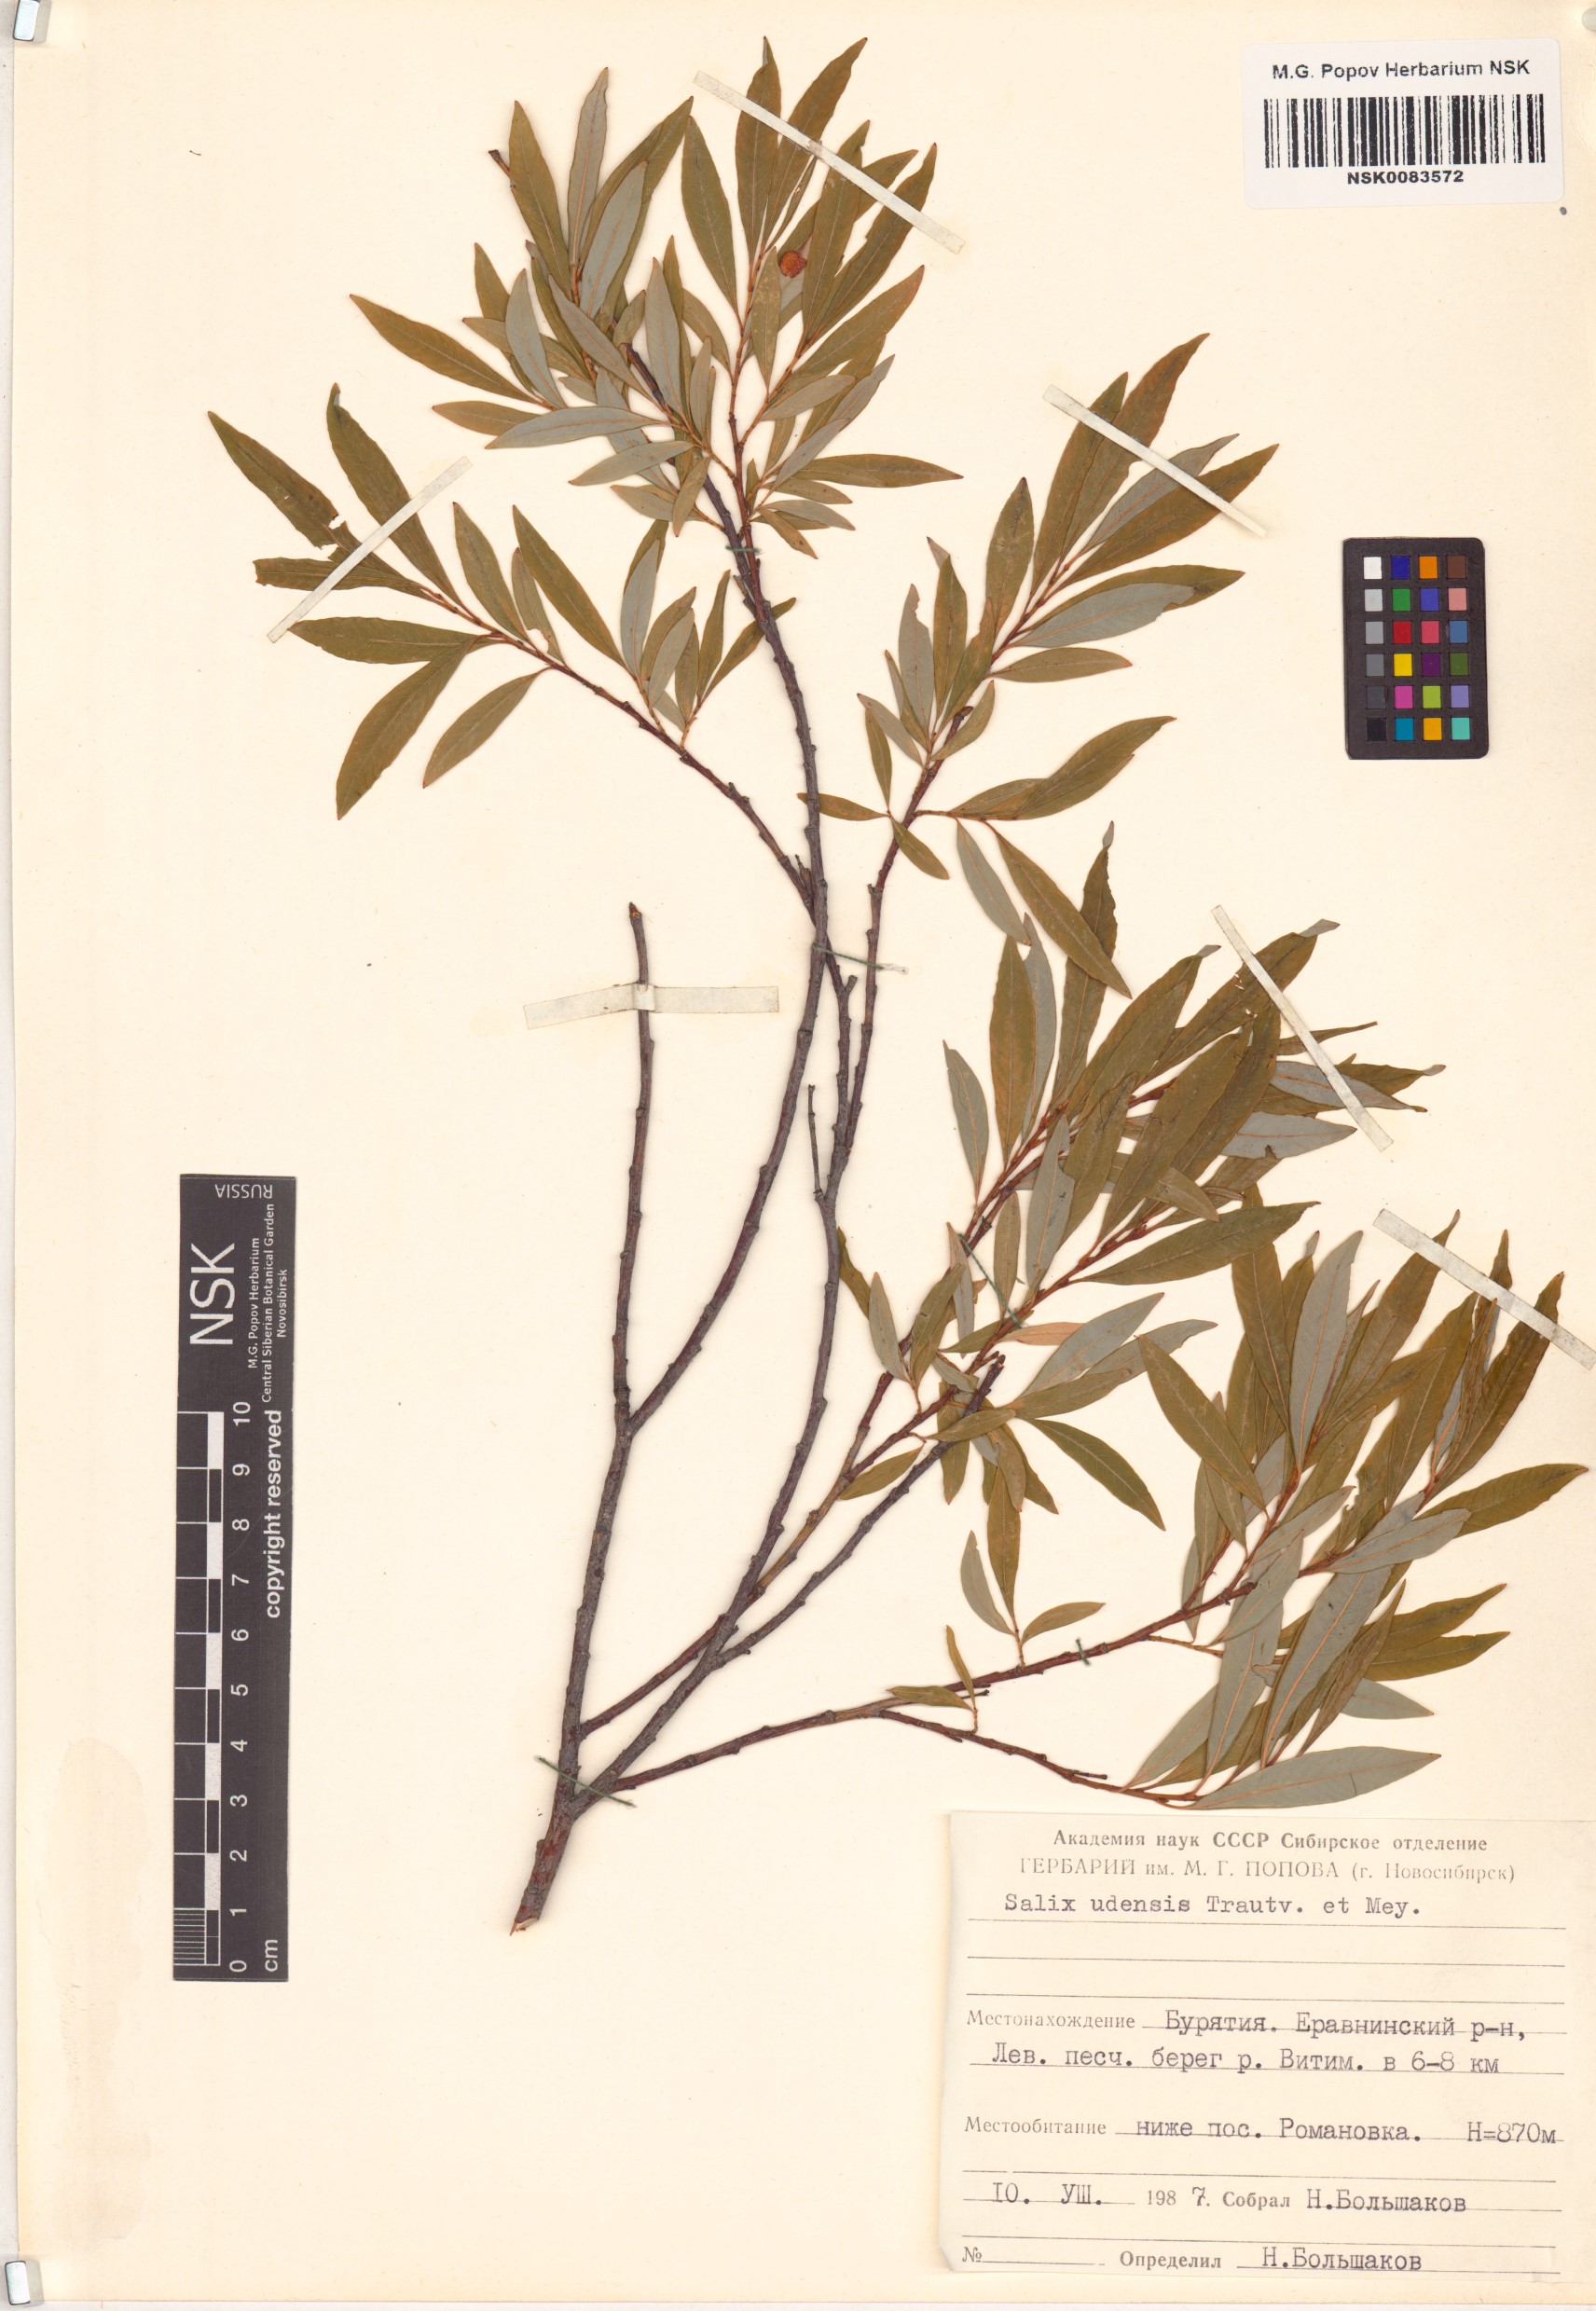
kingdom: Plantae
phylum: Tracheophyta
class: Magnoliopsida
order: Malpighiales
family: Salicaceae
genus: Salix
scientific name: Salix udensis
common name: Sachalin willow
